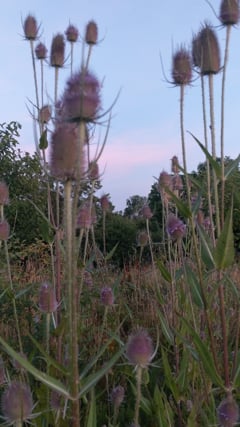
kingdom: Animalia
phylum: Arthropoda
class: Insecta
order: Orthoptera
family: Gryllidae
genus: Oecanthus
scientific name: Oecanthus pellucens
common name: Tree-cricket
